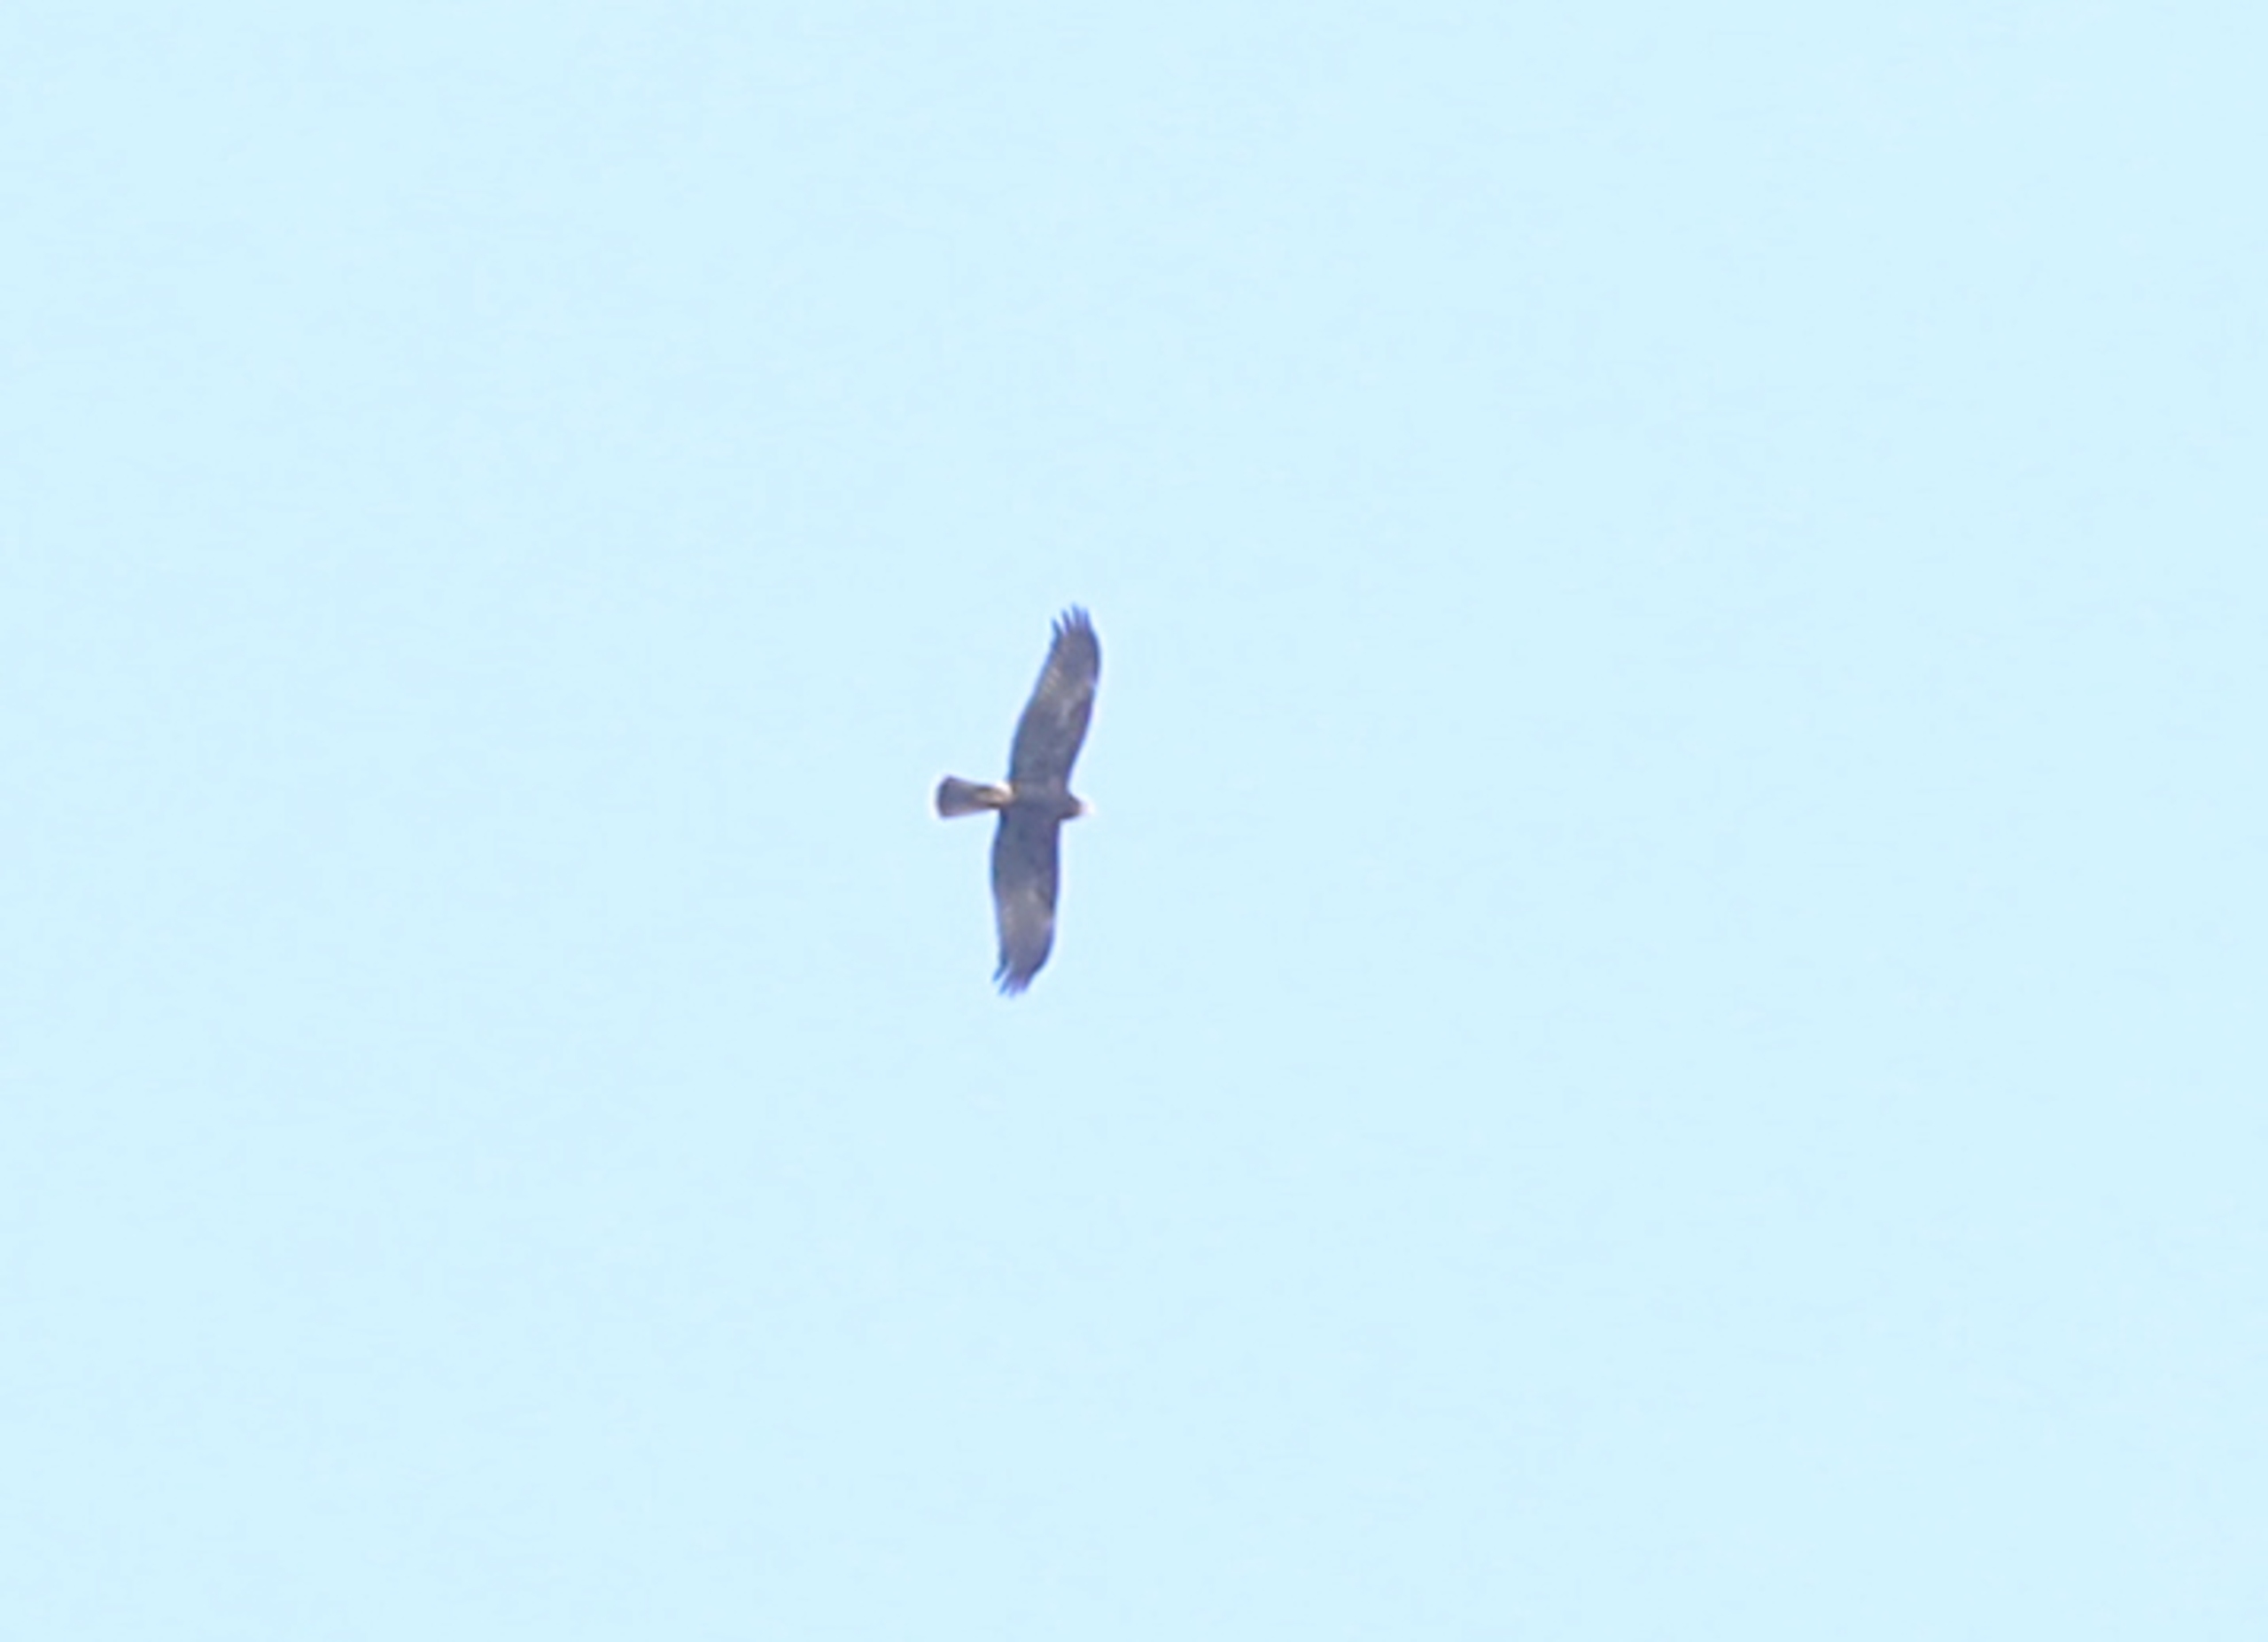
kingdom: Animalia
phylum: Chordata
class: Aves
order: Accipitriformes
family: Accipitridae
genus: Circus
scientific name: Circus aeruginosus
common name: Rørhøg
